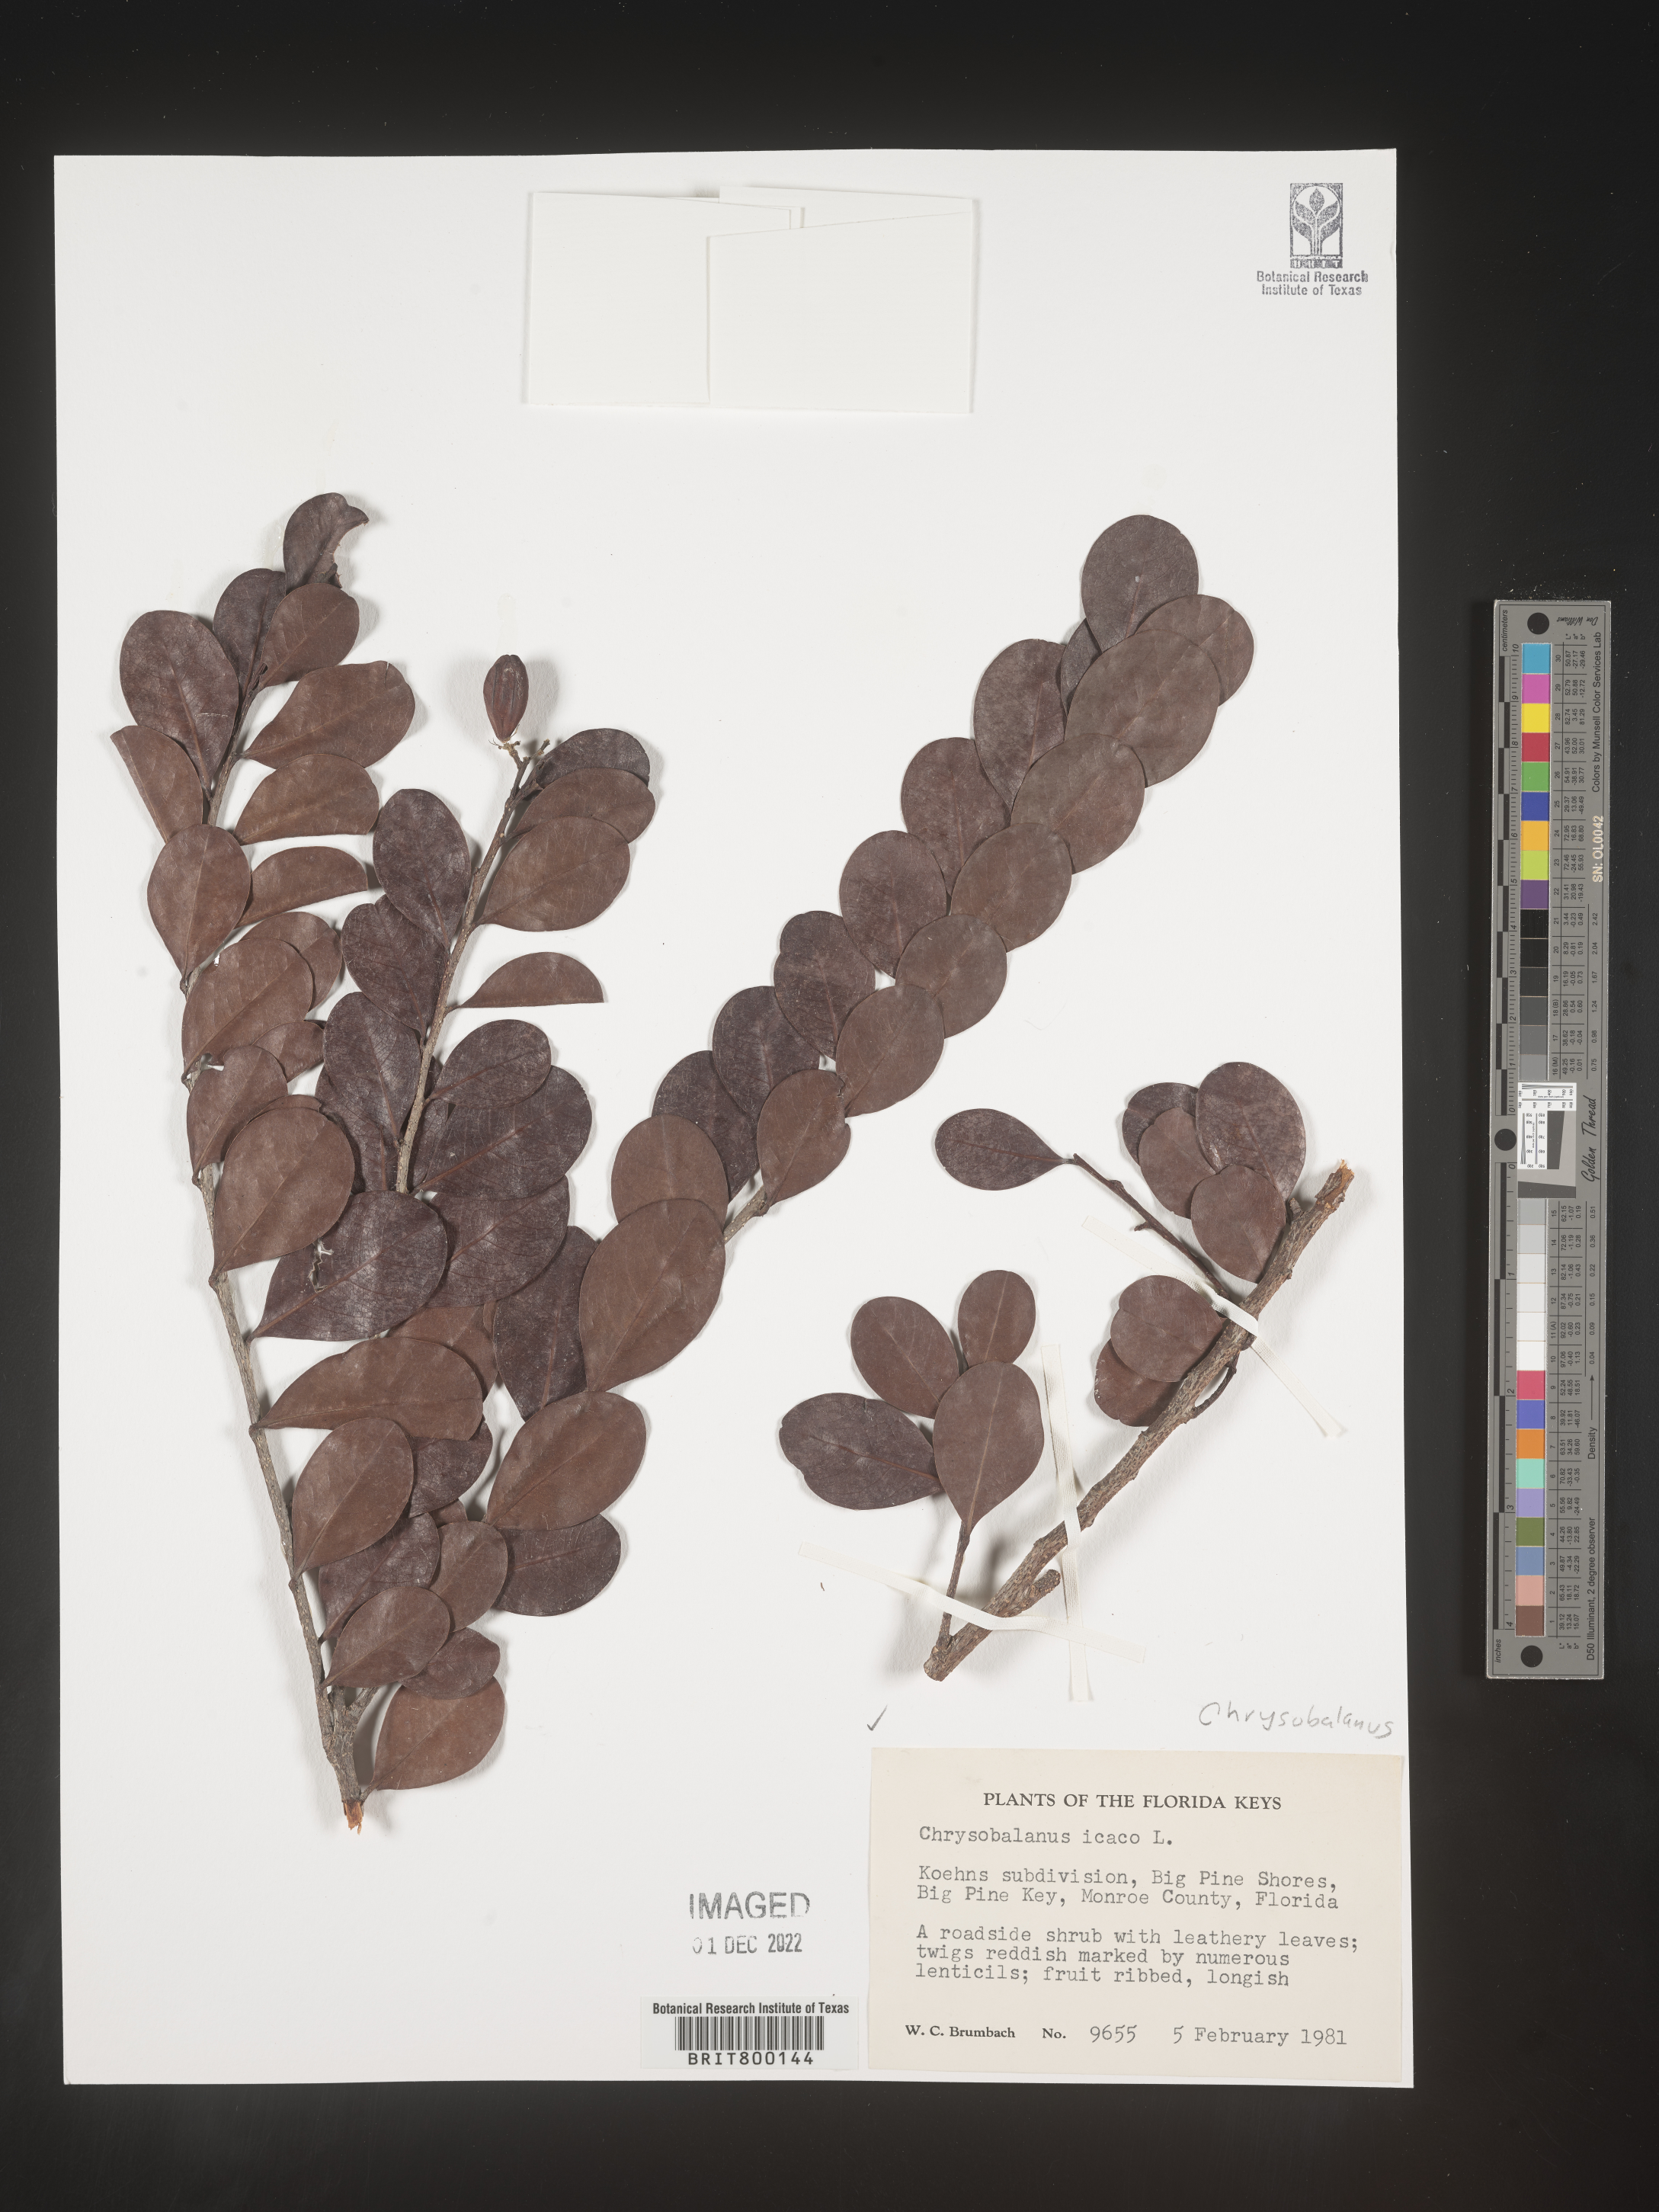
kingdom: Plantae
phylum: Tracheophyta
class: Magnoliopsida
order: Malpighiales
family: Chrysobalanaceae
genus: Chrysobalanus
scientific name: Chrysobalanus icaco
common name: Coco plum
